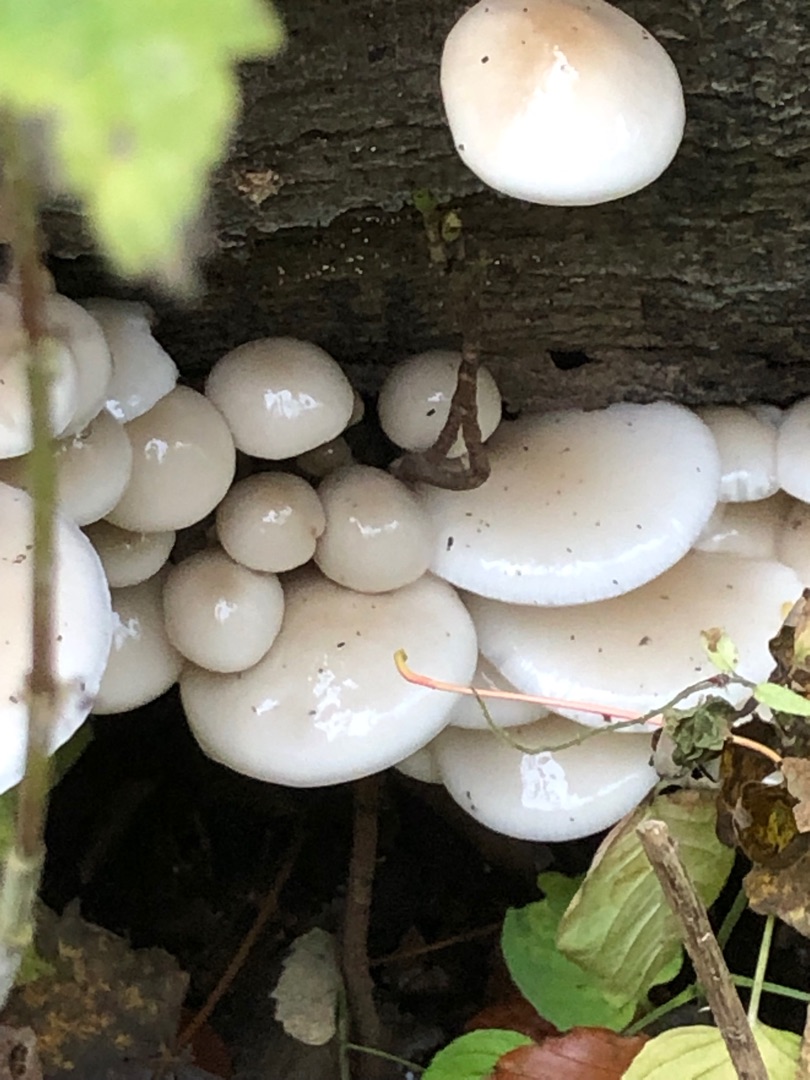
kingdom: Fungi
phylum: Basidiomycota
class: Agaricomycetes
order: Agaricales
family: Physalacriaceae
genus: Mucidula
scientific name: Mucidula mucida
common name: Porcelænshat
